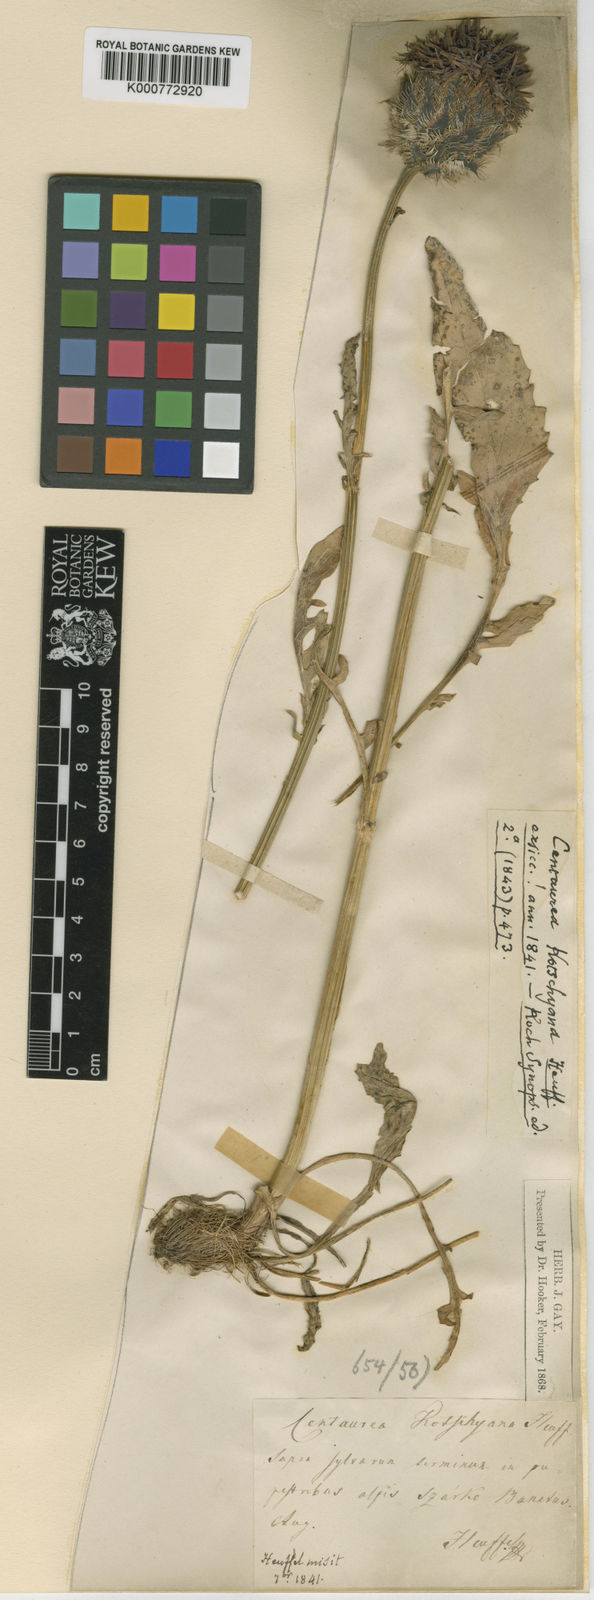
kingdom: Plantae
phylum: Tracheophyta
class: Magnoliopsida
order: Asterales
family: Asteraceae
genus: Centaurea
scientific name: Centaurea kotschyana
